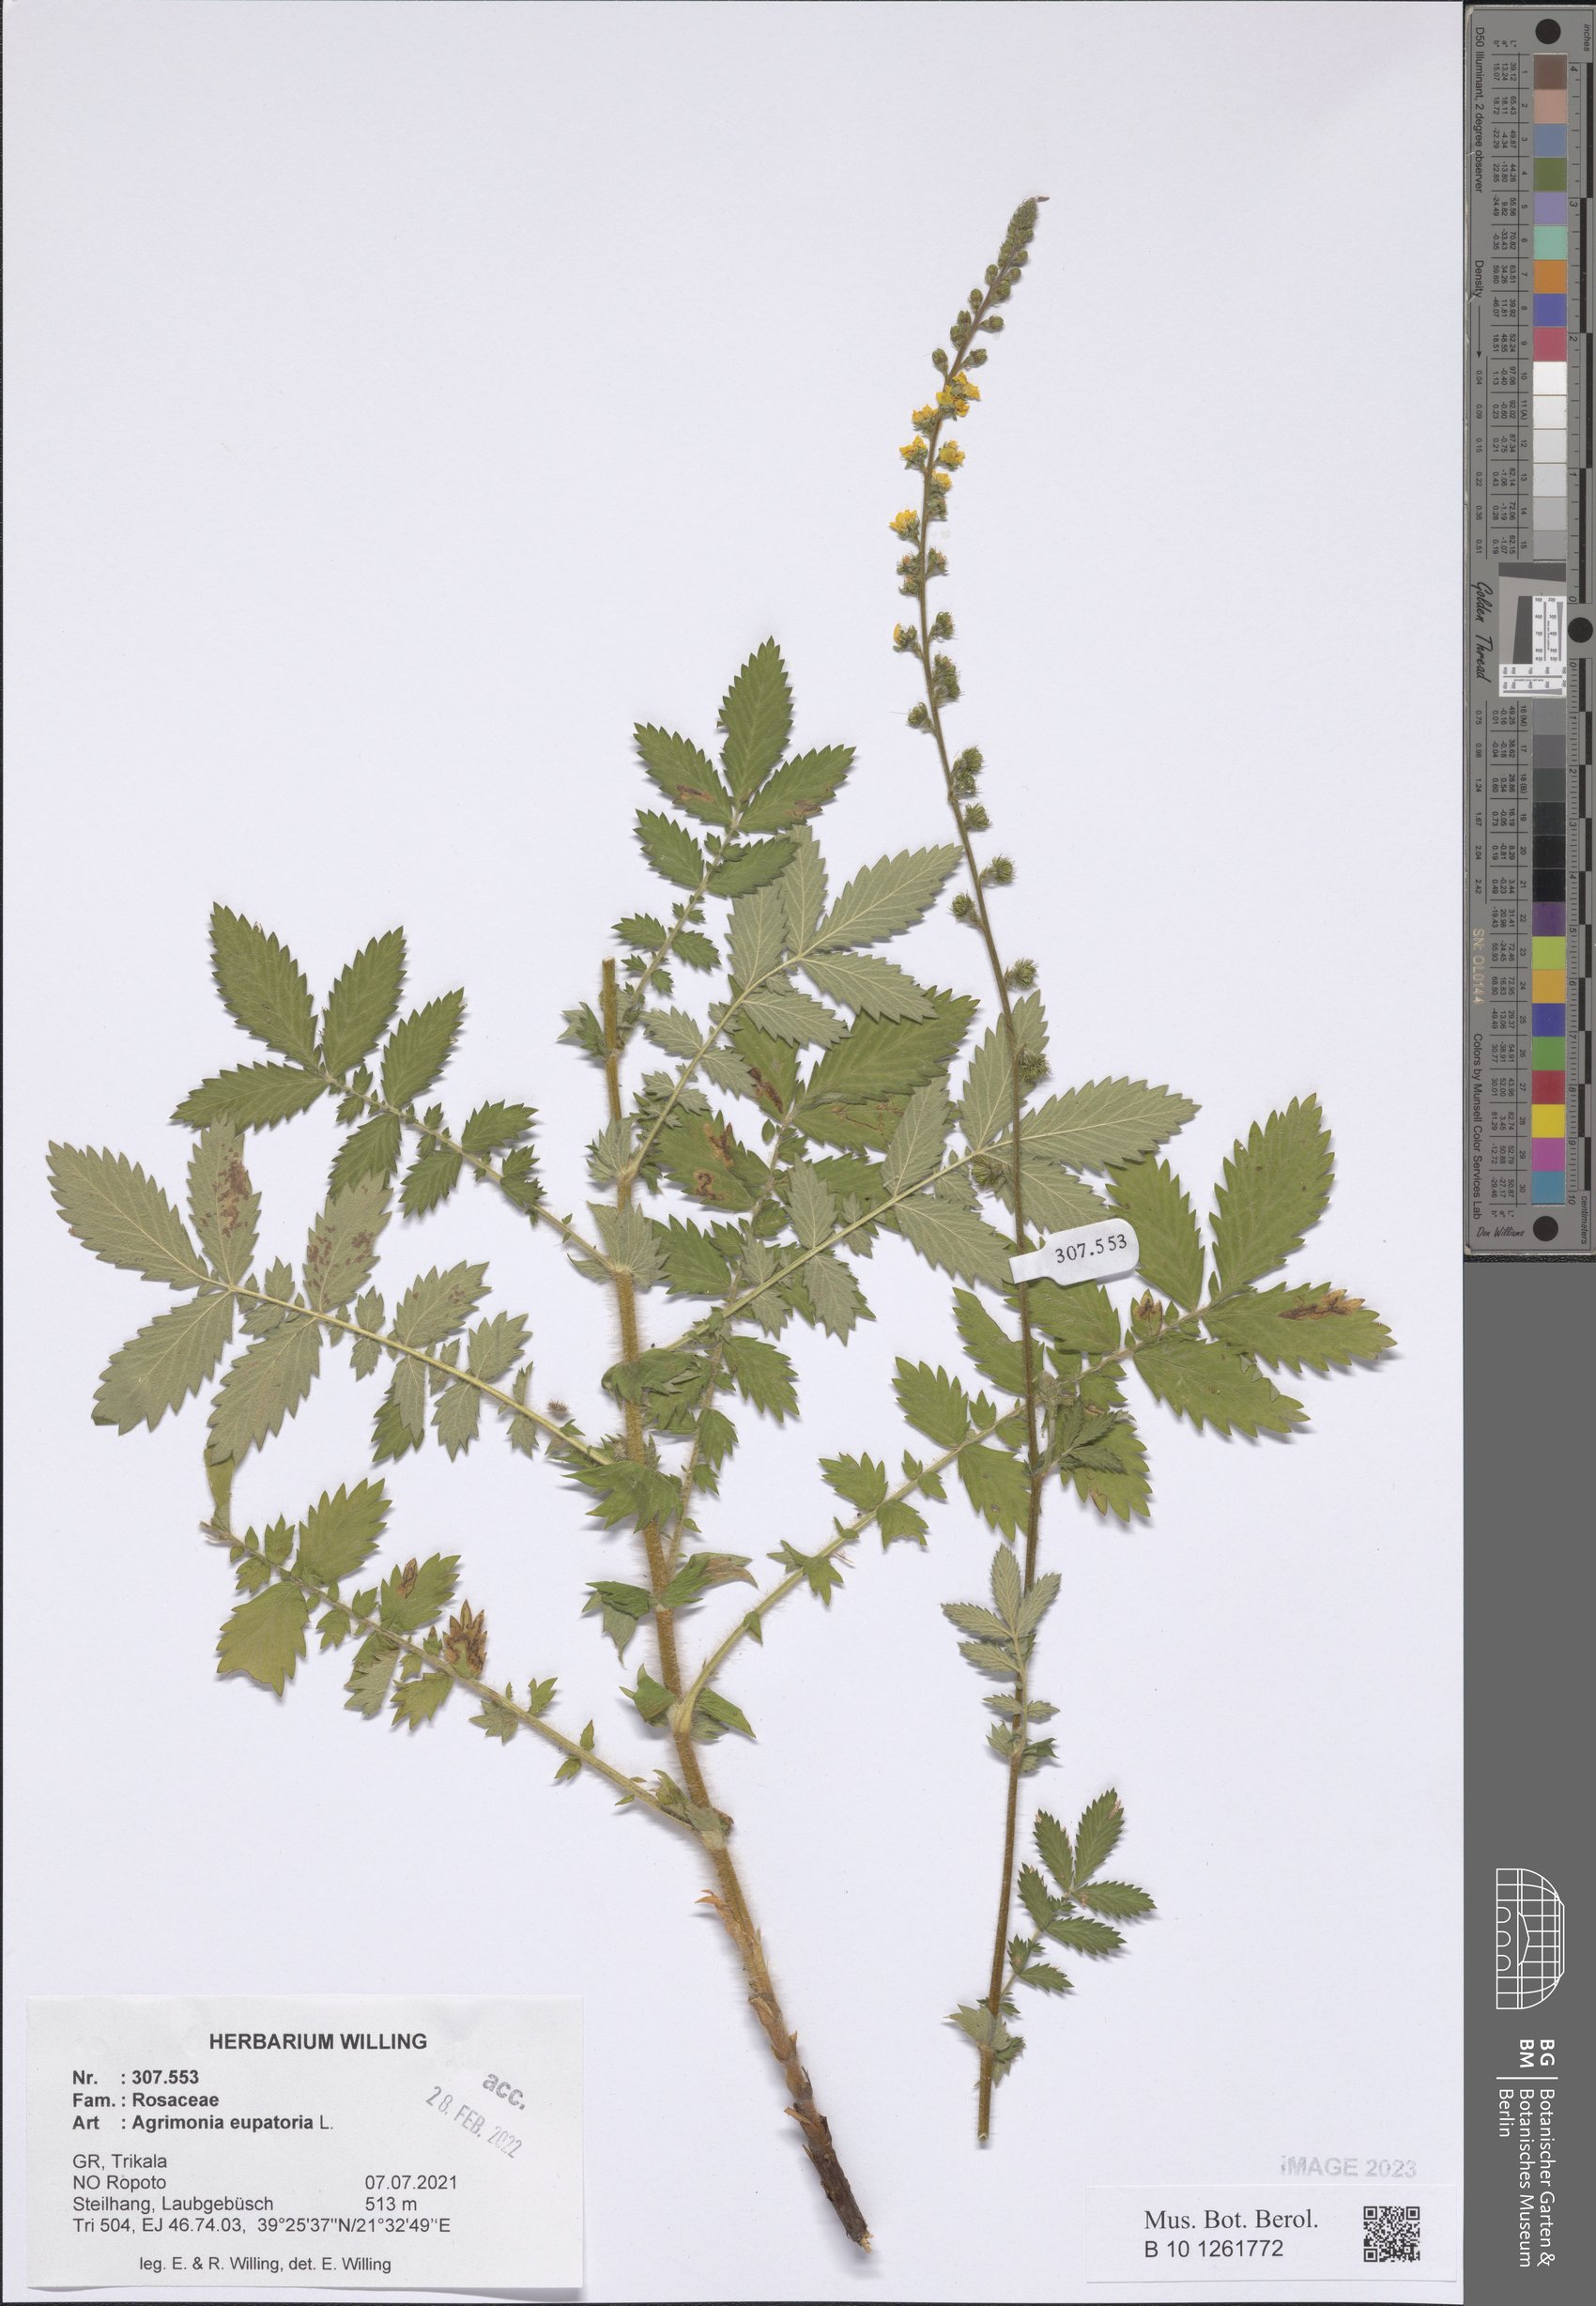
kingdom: Plantae
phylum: Tracheophyta
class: Magnoliopsida
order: Rosales
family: Rosaceae
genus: Agrimonia
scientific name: Agrimonia eupatoria
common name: Agrimony
